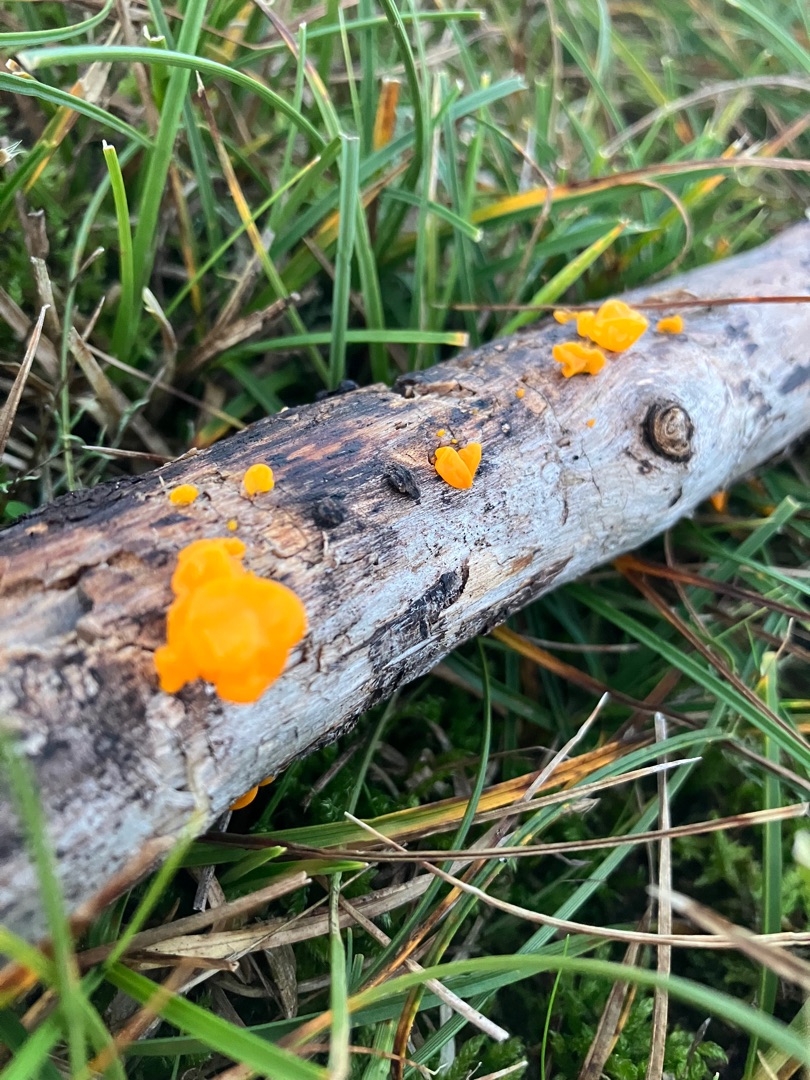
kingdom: Fungi
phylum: Basidiomycota
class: Tremellomycetes
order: Tremellales
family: Tremellaceae
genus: Tremella
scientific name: Tremella mesenterica
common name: Gul bævresvamp
